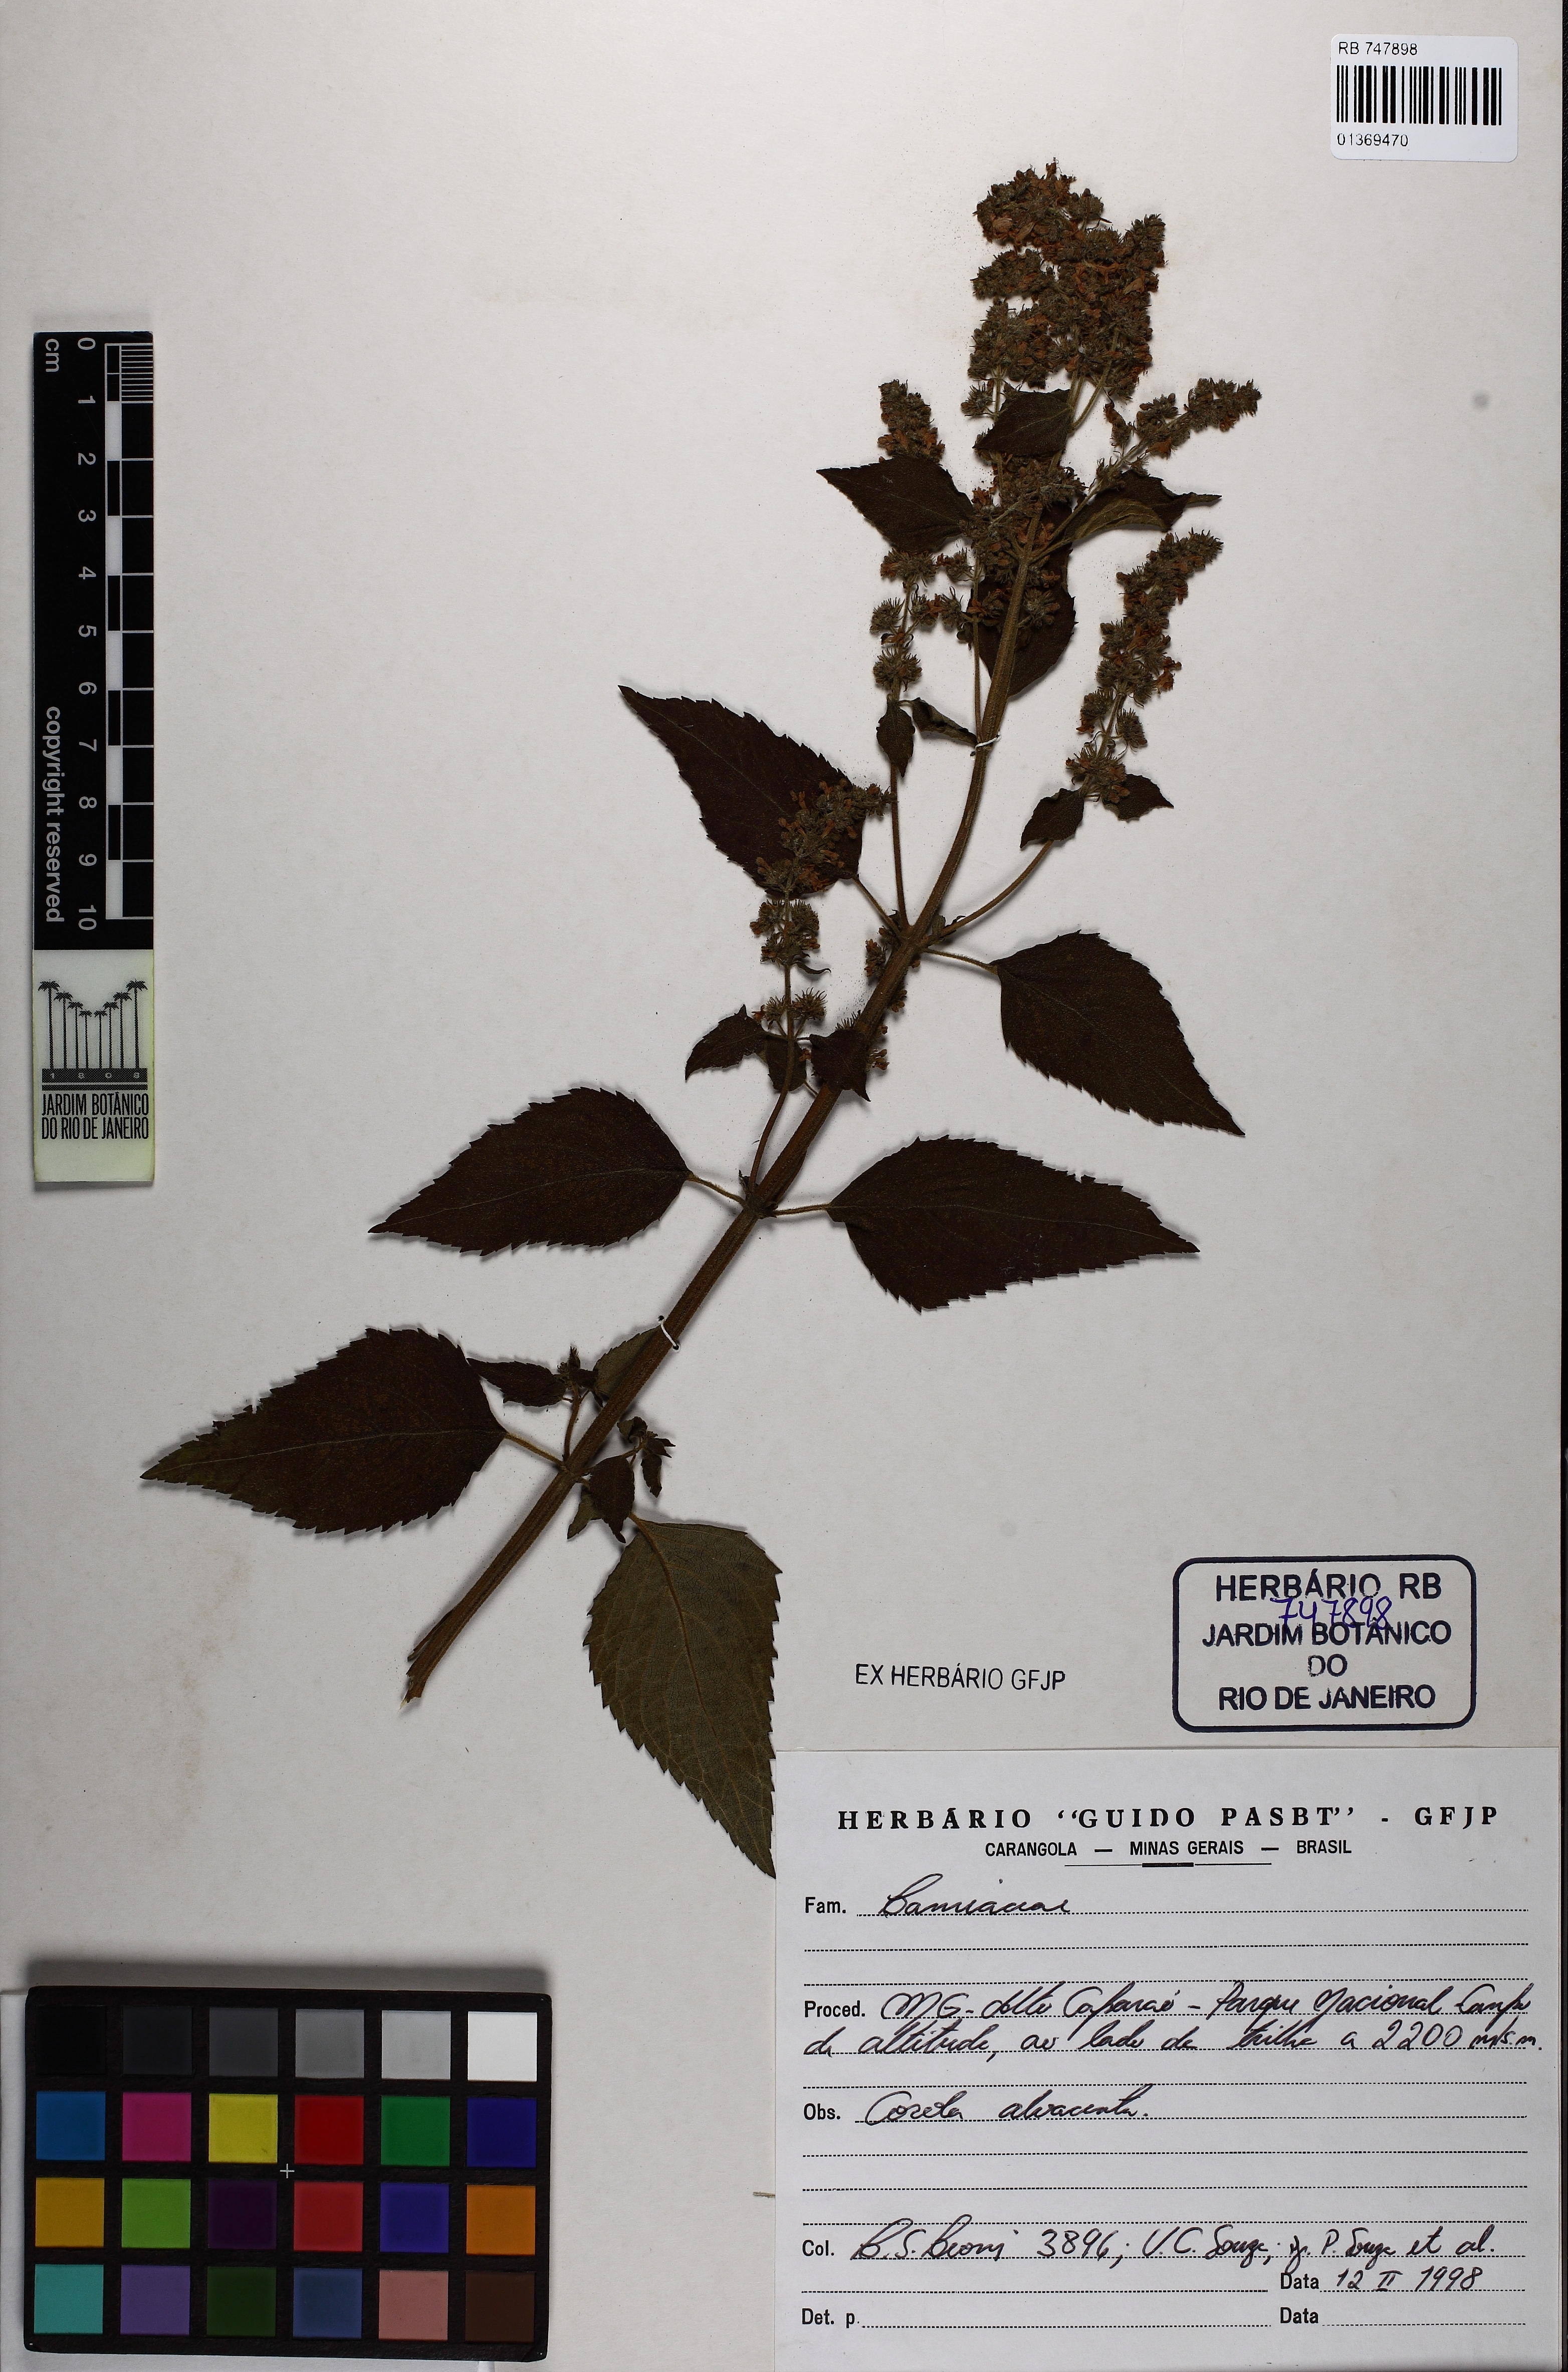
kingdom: Plantae
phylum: Tracheophyta
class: Magnoliopsida
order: Lamiales
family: Lamiaceae
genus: Cantinoa
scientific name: Cantinoa
